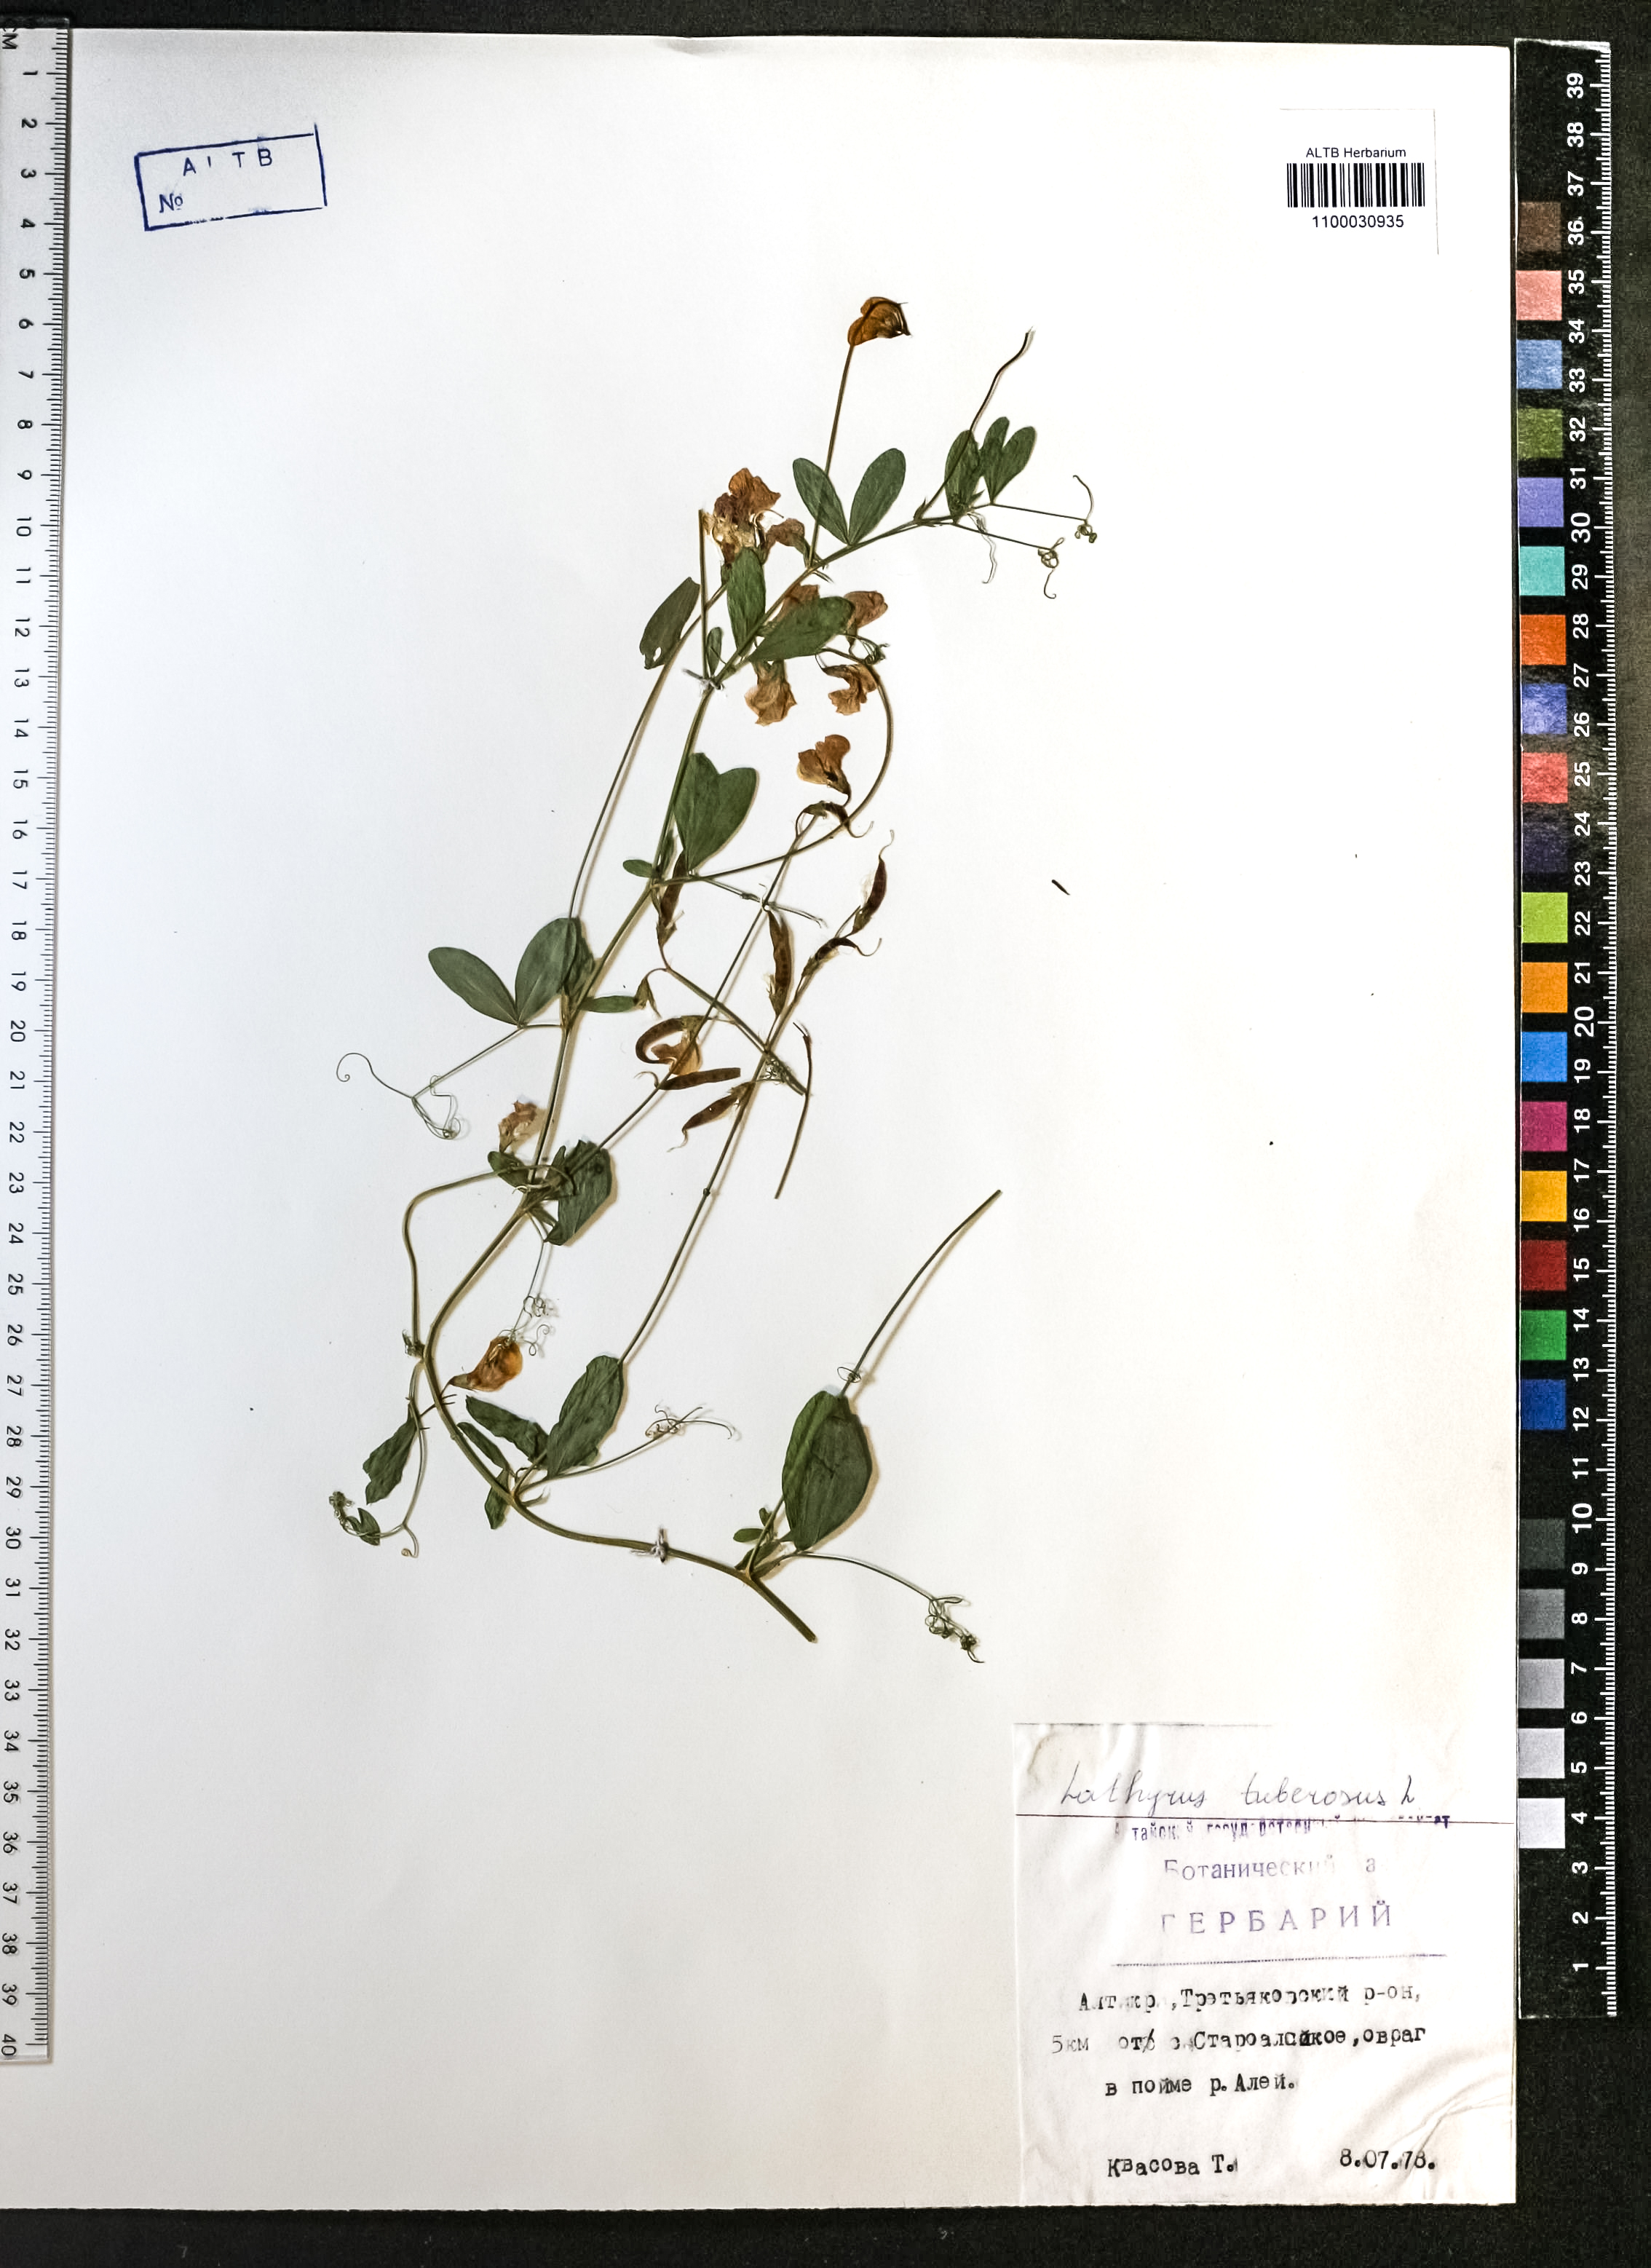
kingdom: Plantae
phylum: Tracheophyta
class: Magnoliopsida
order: Fabales
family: Fabaceae
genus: Lathyrus
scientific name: Lathyrus tuberosus
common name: Tuberous pea
